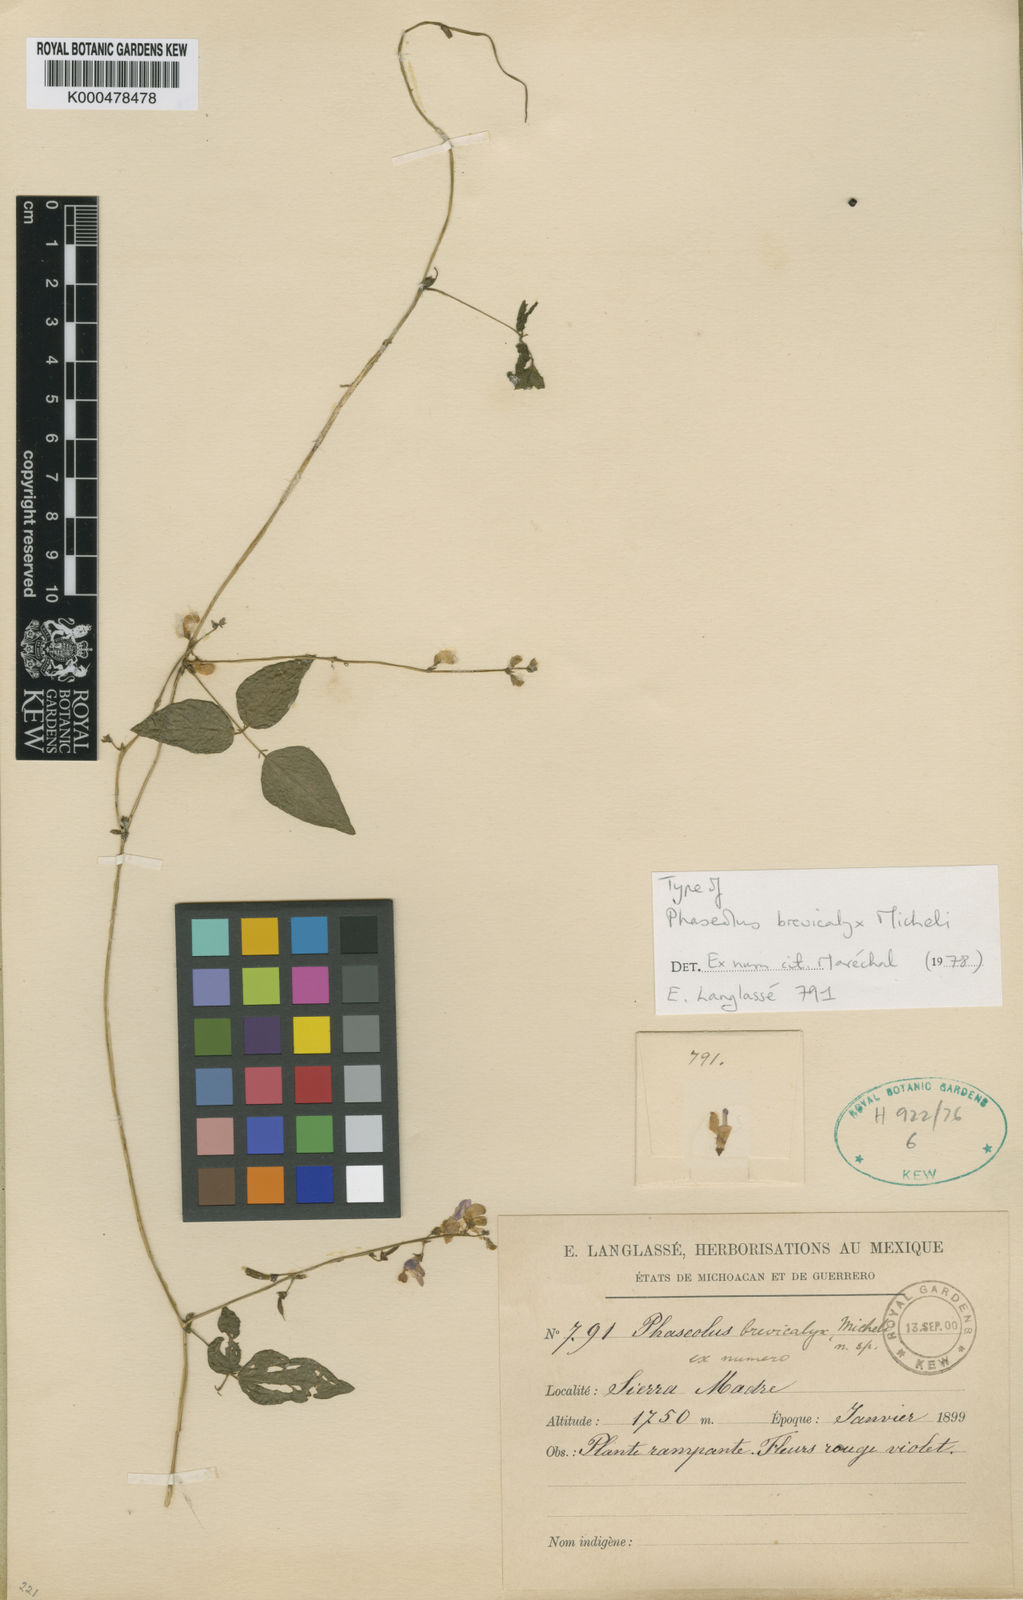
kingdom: Plantae
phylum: Tracheophyta
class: Magnoliopsida
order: Fabales
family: Fabaceae
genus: Phaseolus
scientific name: Phaseolus micranthus
